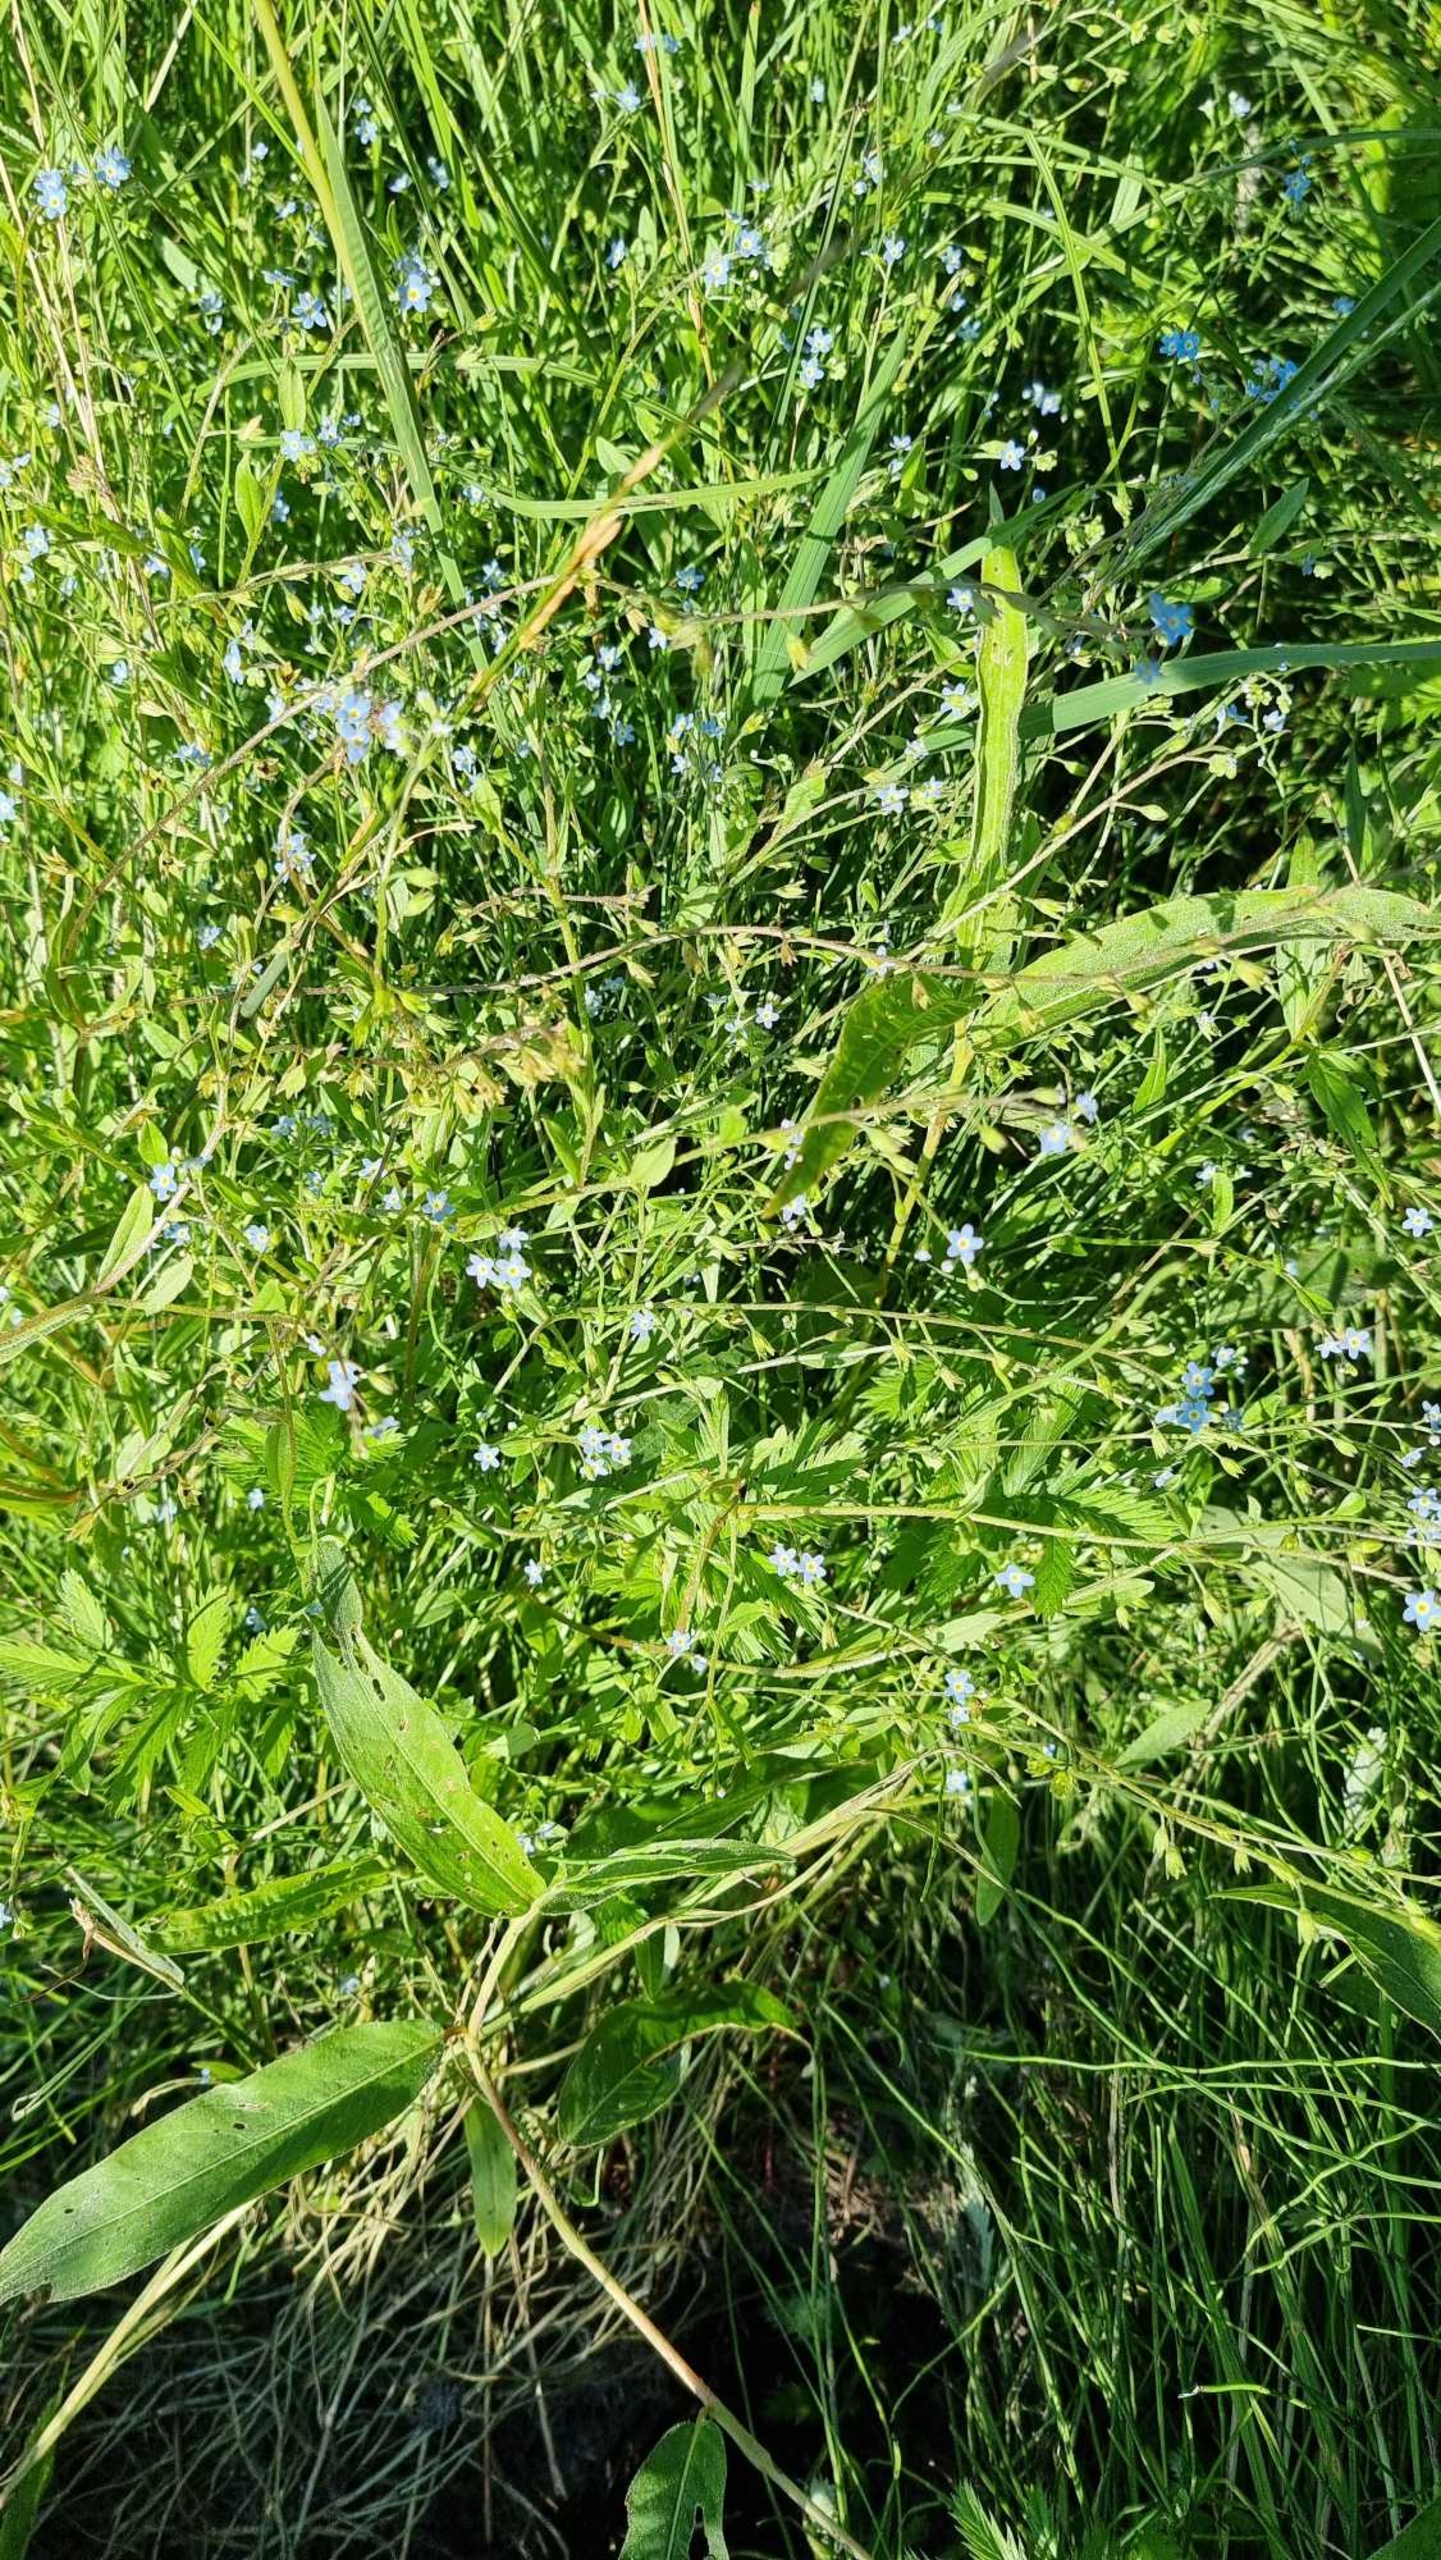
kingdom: Plantae
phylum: Tracheophyta
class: Magnoliopsida
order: Boraginales
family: Boraginaceae
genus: Myosotis
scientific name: Myosotis laxa
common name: Sump-forglemmigej
